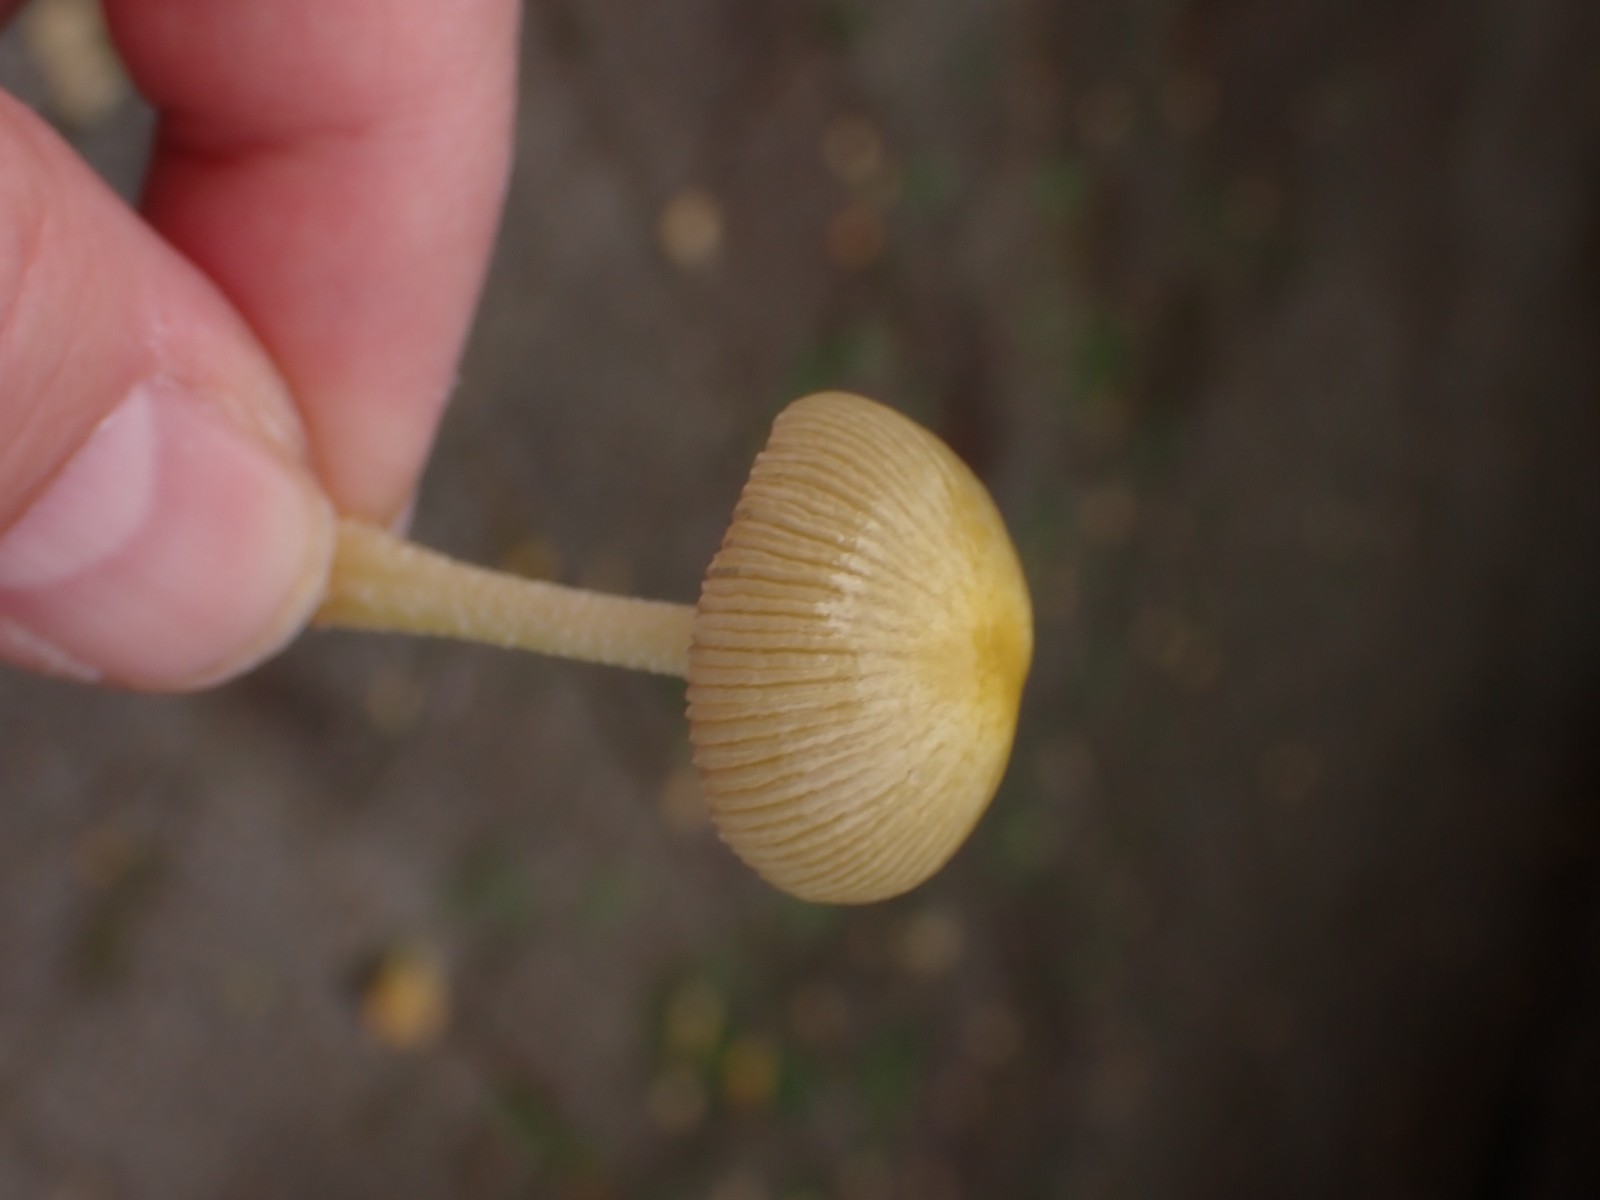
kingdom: Fungi
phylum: Basidiomycota
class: Agaricomycetes
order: Agaricales
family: Bolbitiaceae
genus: Bolbitius
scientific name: Bolbitius titubans
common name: almindelig gulhat
